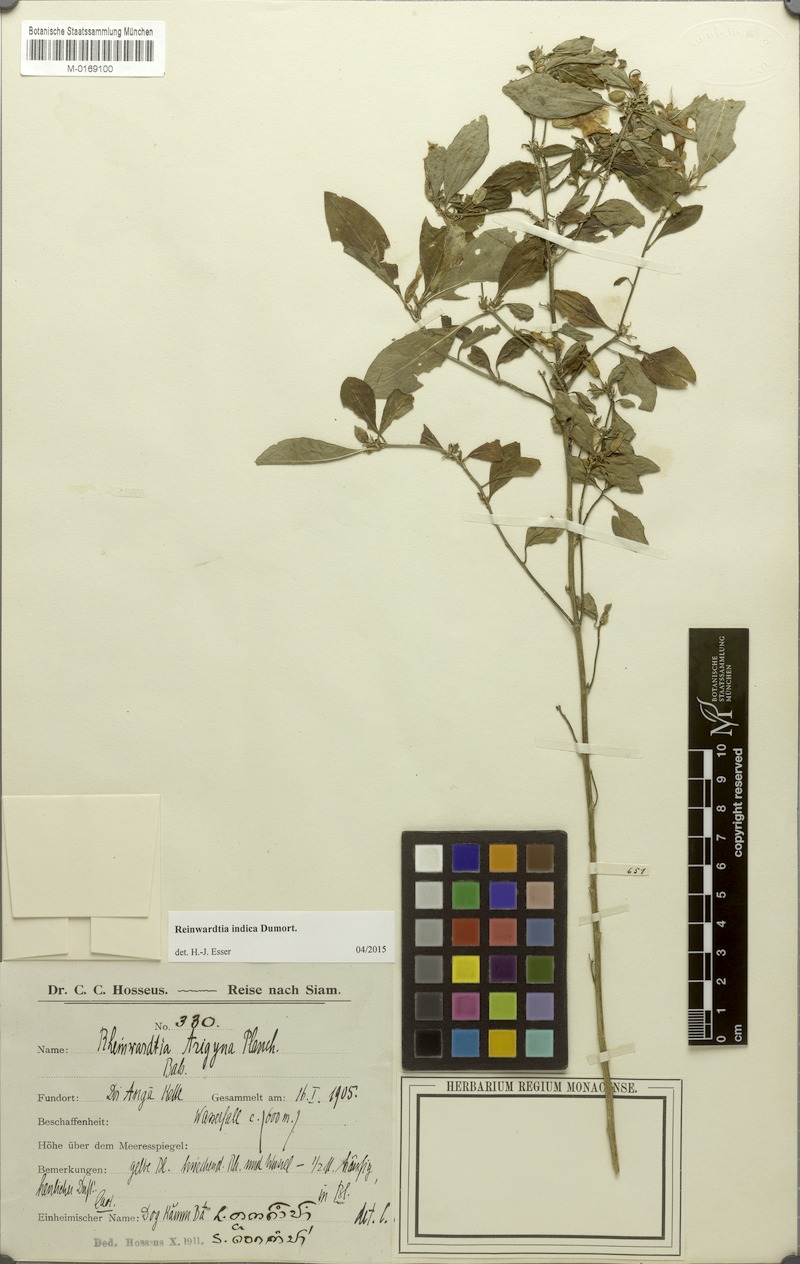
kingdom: Plantae
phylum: Tracheophyta
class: Magnoliopsida
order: Malpighiales
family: Linaceae
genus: Reinwardtia
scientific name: Reinwardtia indica
